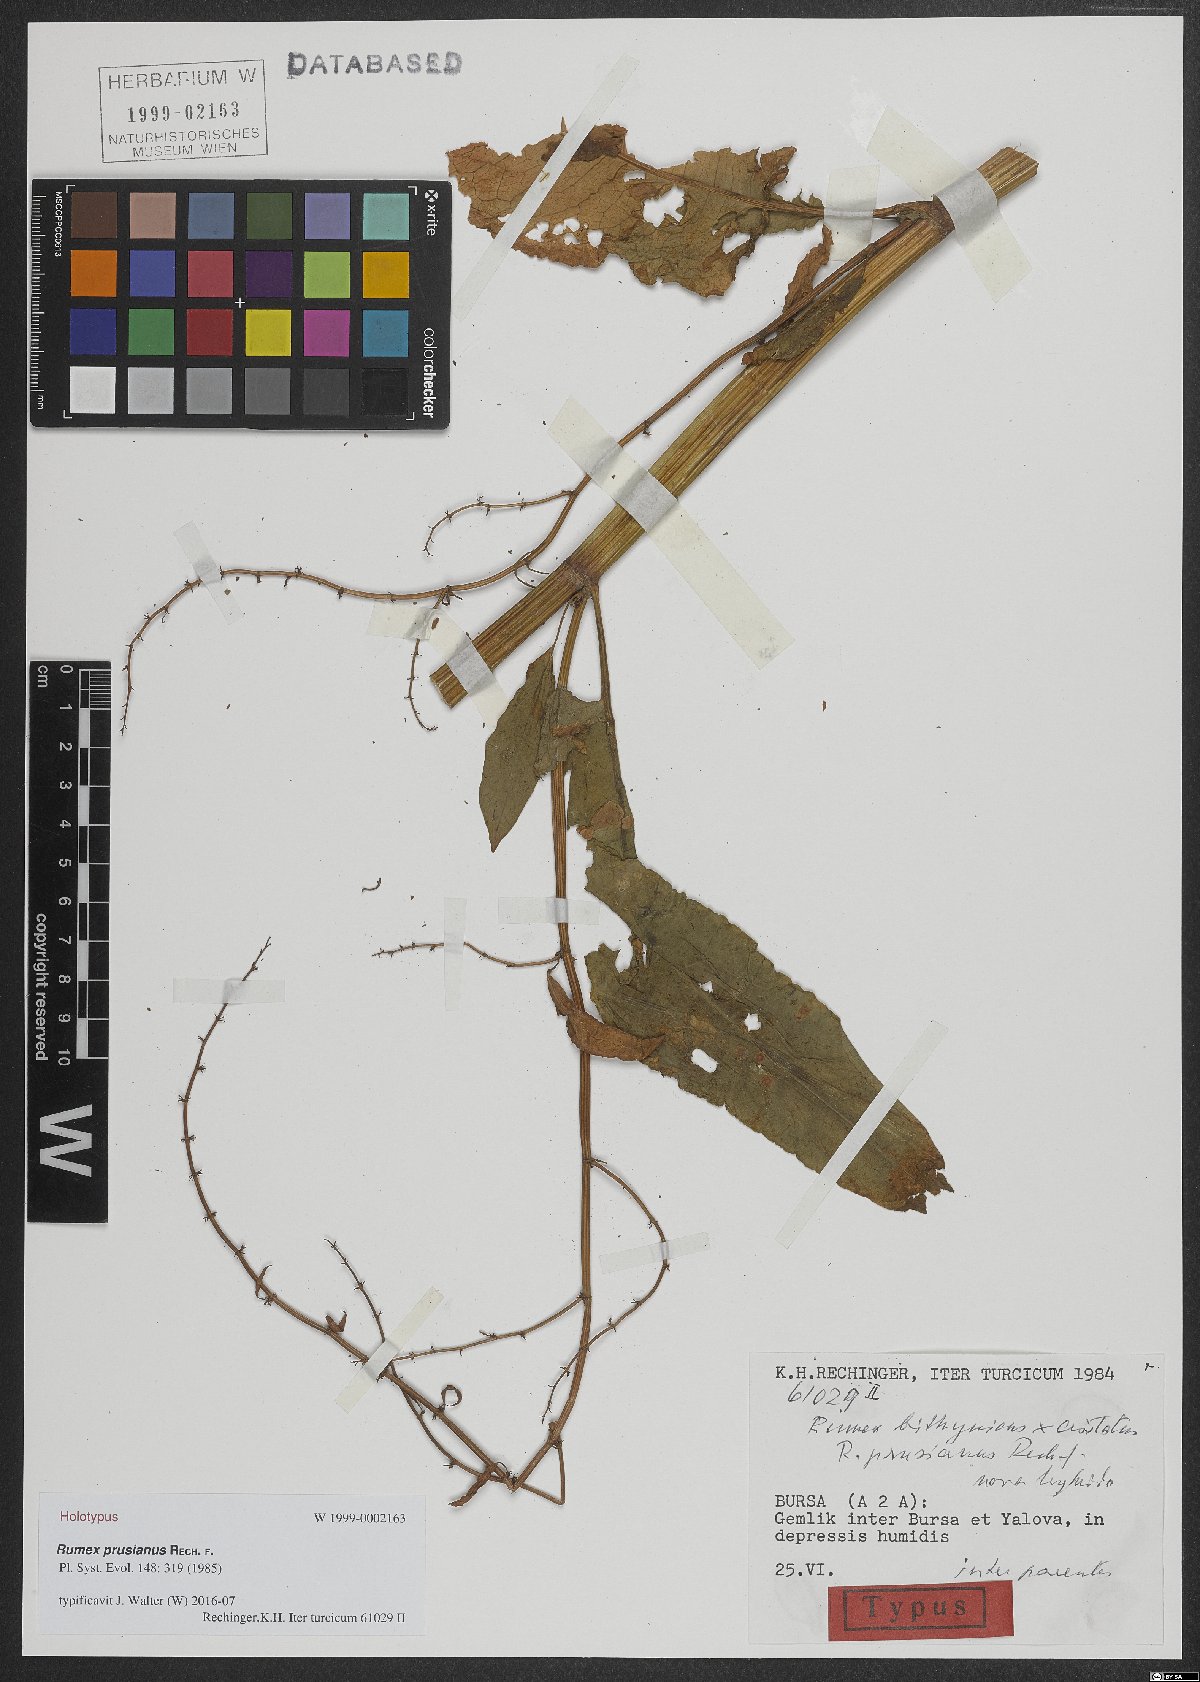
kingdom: Plantae
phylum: Tracheophyta
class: Magnoliopsida
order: Caryophyllales
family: Polygonaceae
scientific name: Polygonaceae
